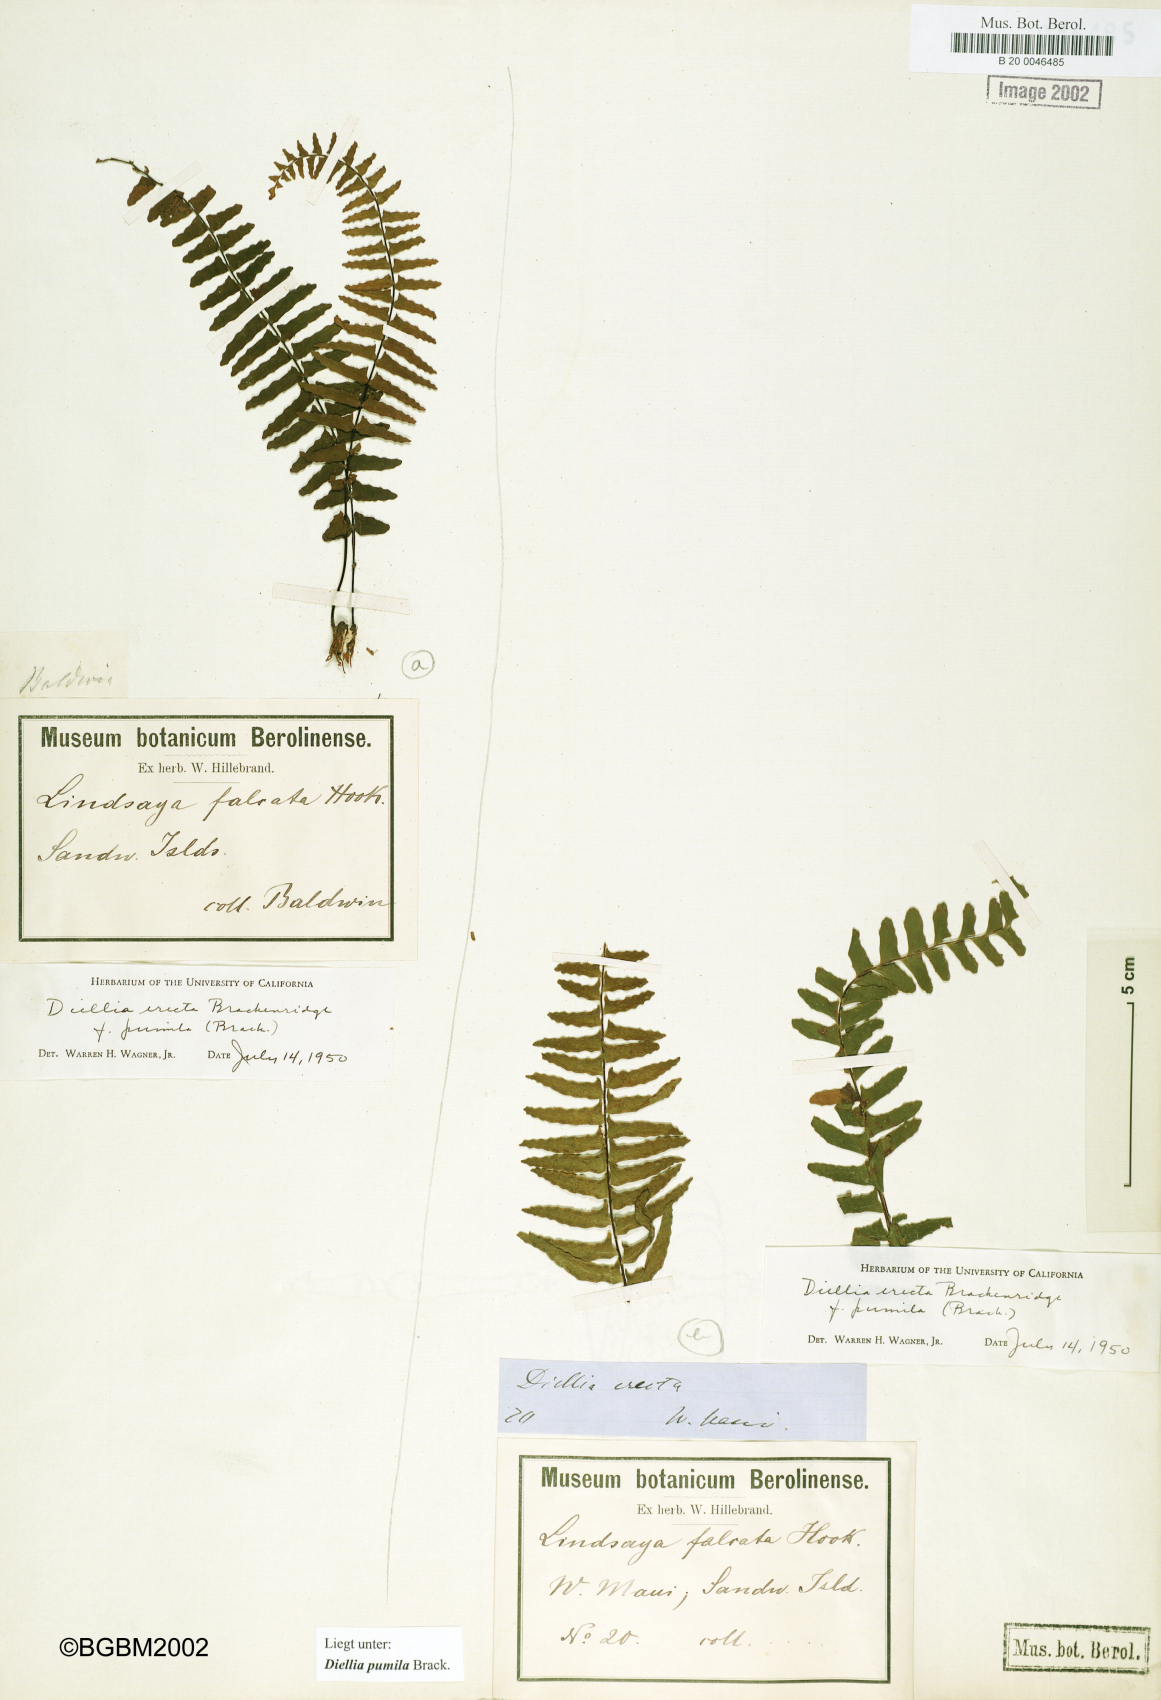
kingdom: Plantae
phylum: Tracheophyta
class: Polypodiopsida
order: Polypodiales
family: Aspleniaceae
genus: Asplenium
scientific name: Asplenium dielerectum
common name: Erect island spleenwort
